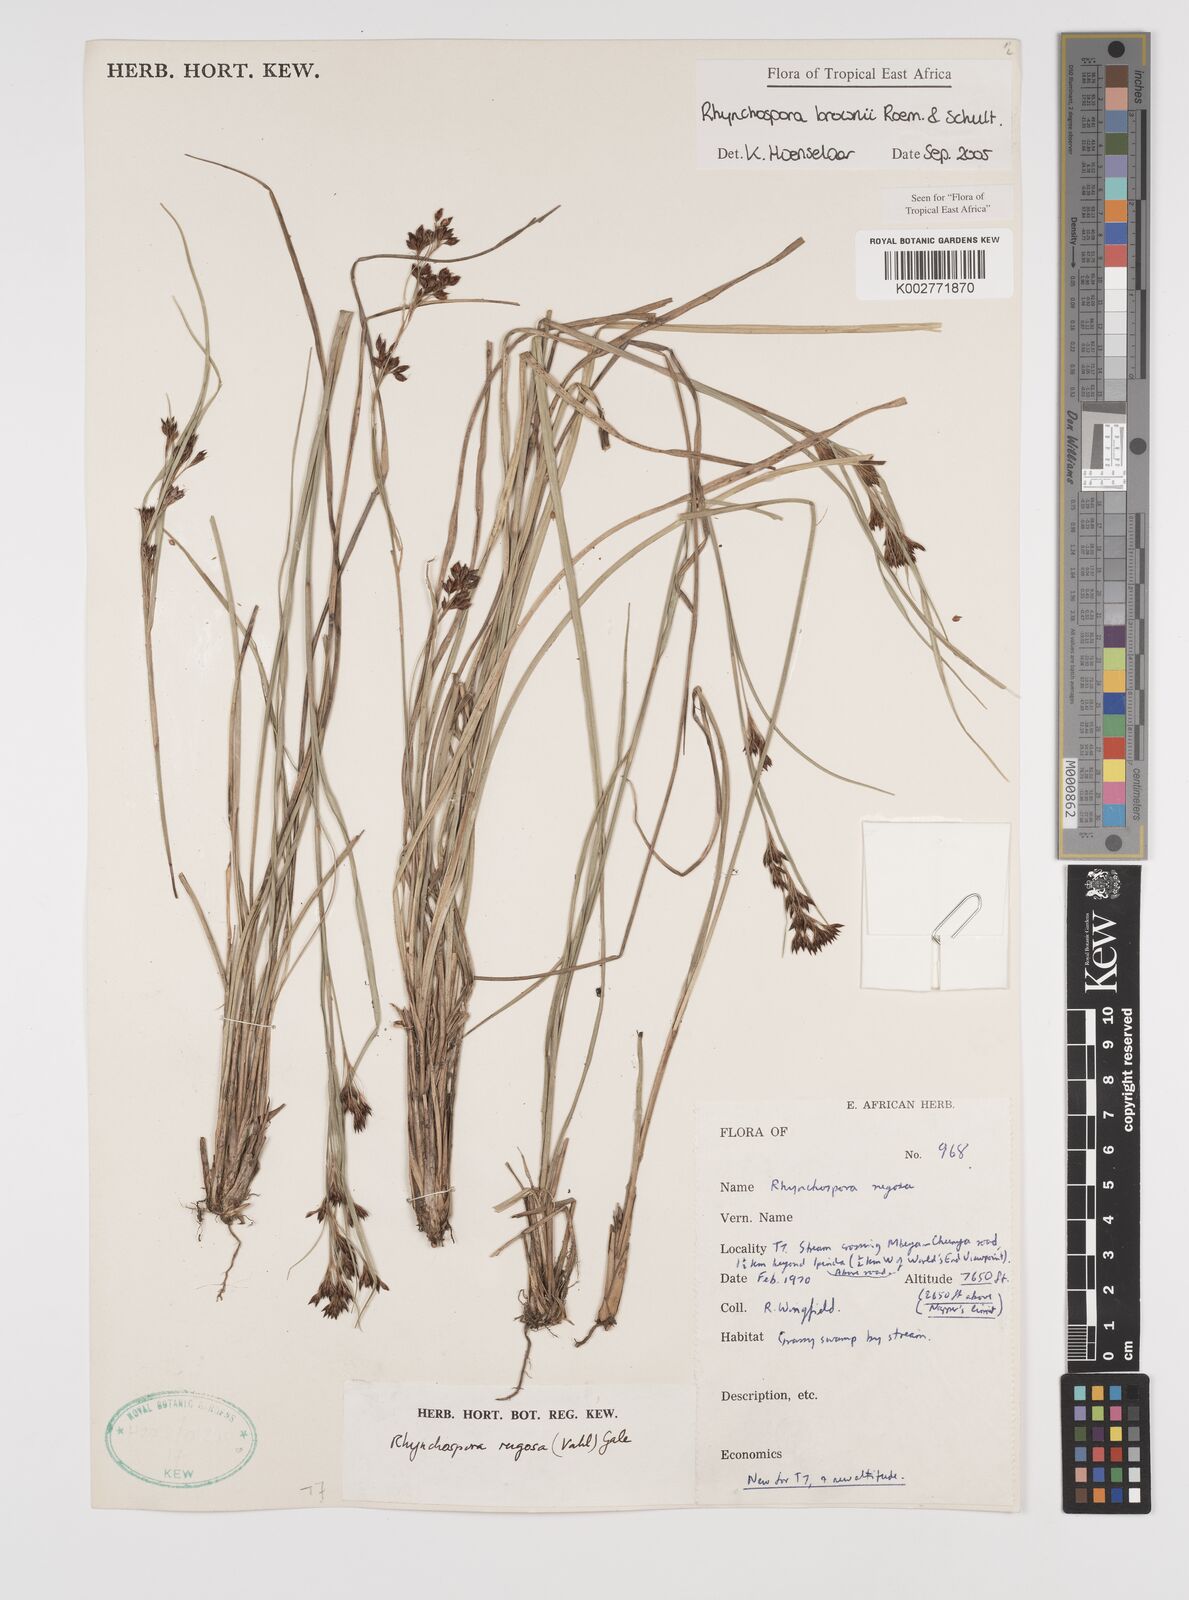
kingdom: Plantae
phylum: Tracheophyta
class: Liliopsida
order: Poales
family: Cyperaceae
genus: Rhynchospora
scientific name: Rhynchospora brownii
